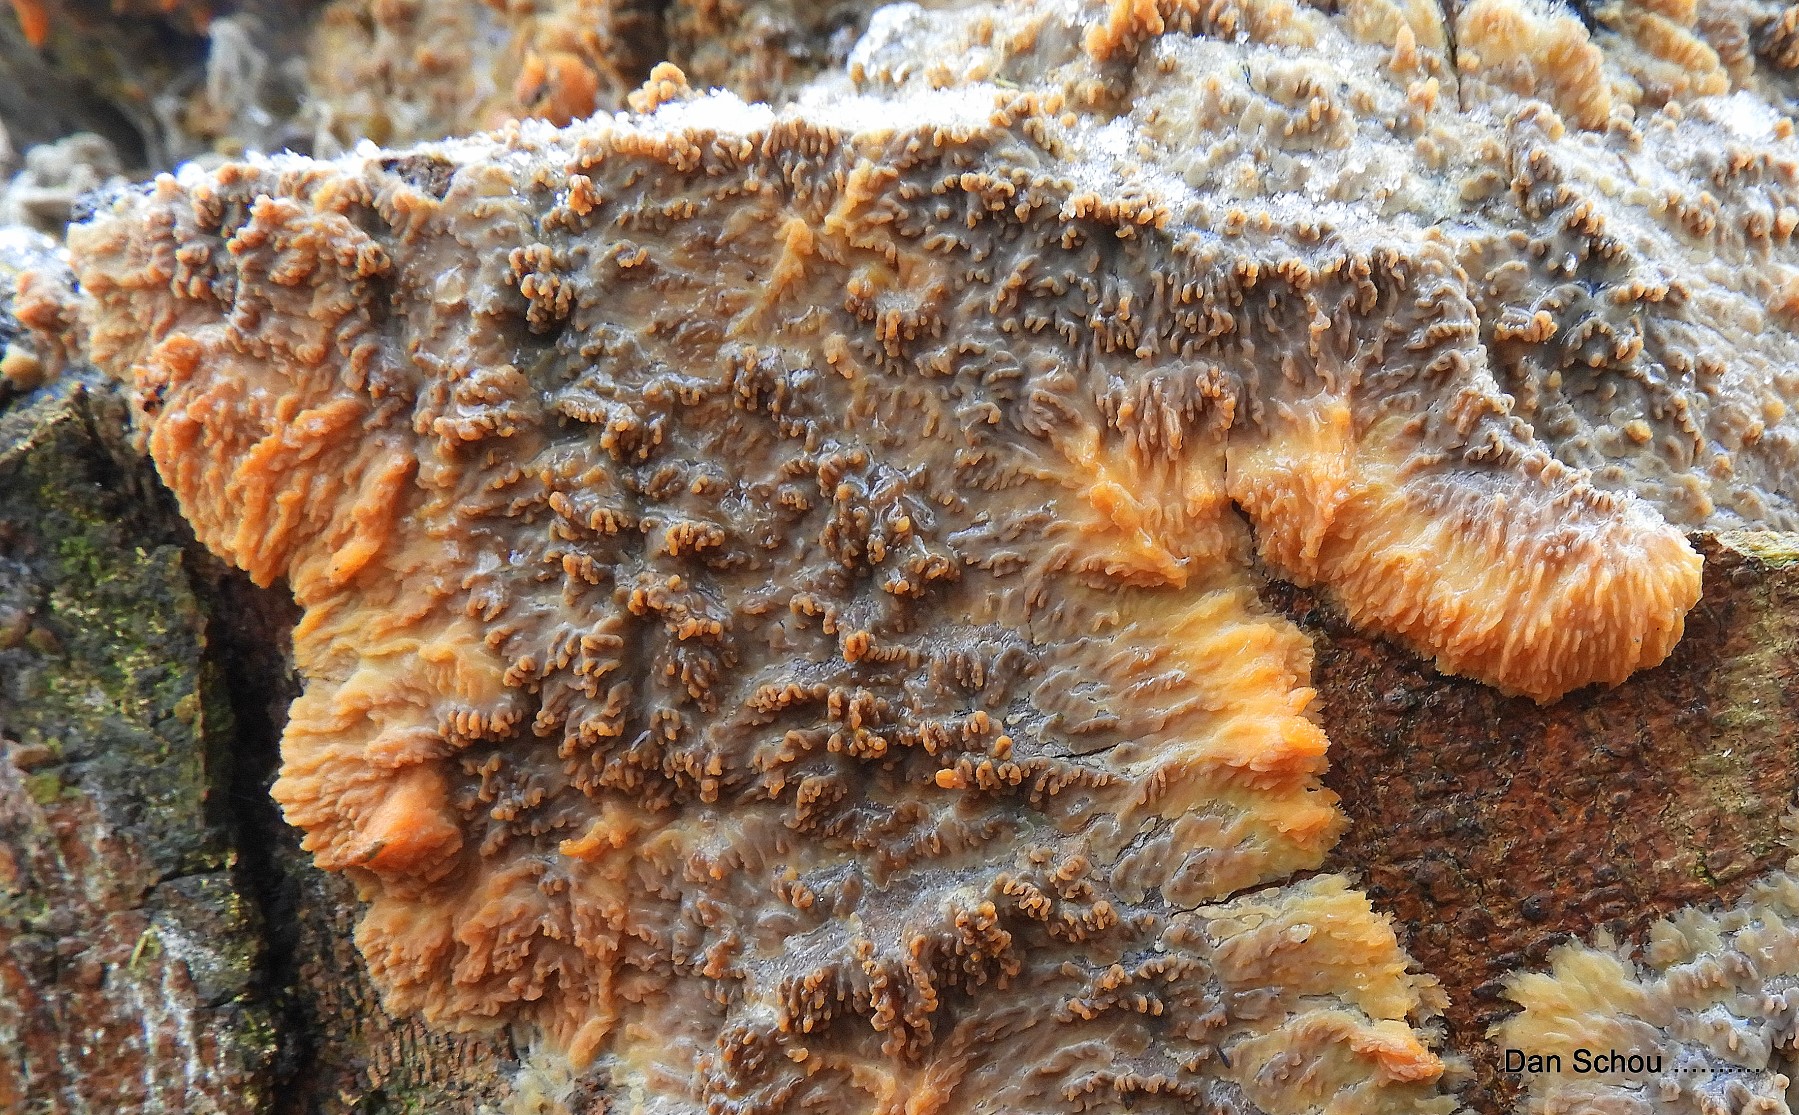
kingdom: Fungi
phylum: Basidiomycota
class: Agaricomycetes
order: Polyporales
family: Meruliaceae
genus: Phlebia
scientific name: Phlebia radiata
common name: stråle-åresvamp
